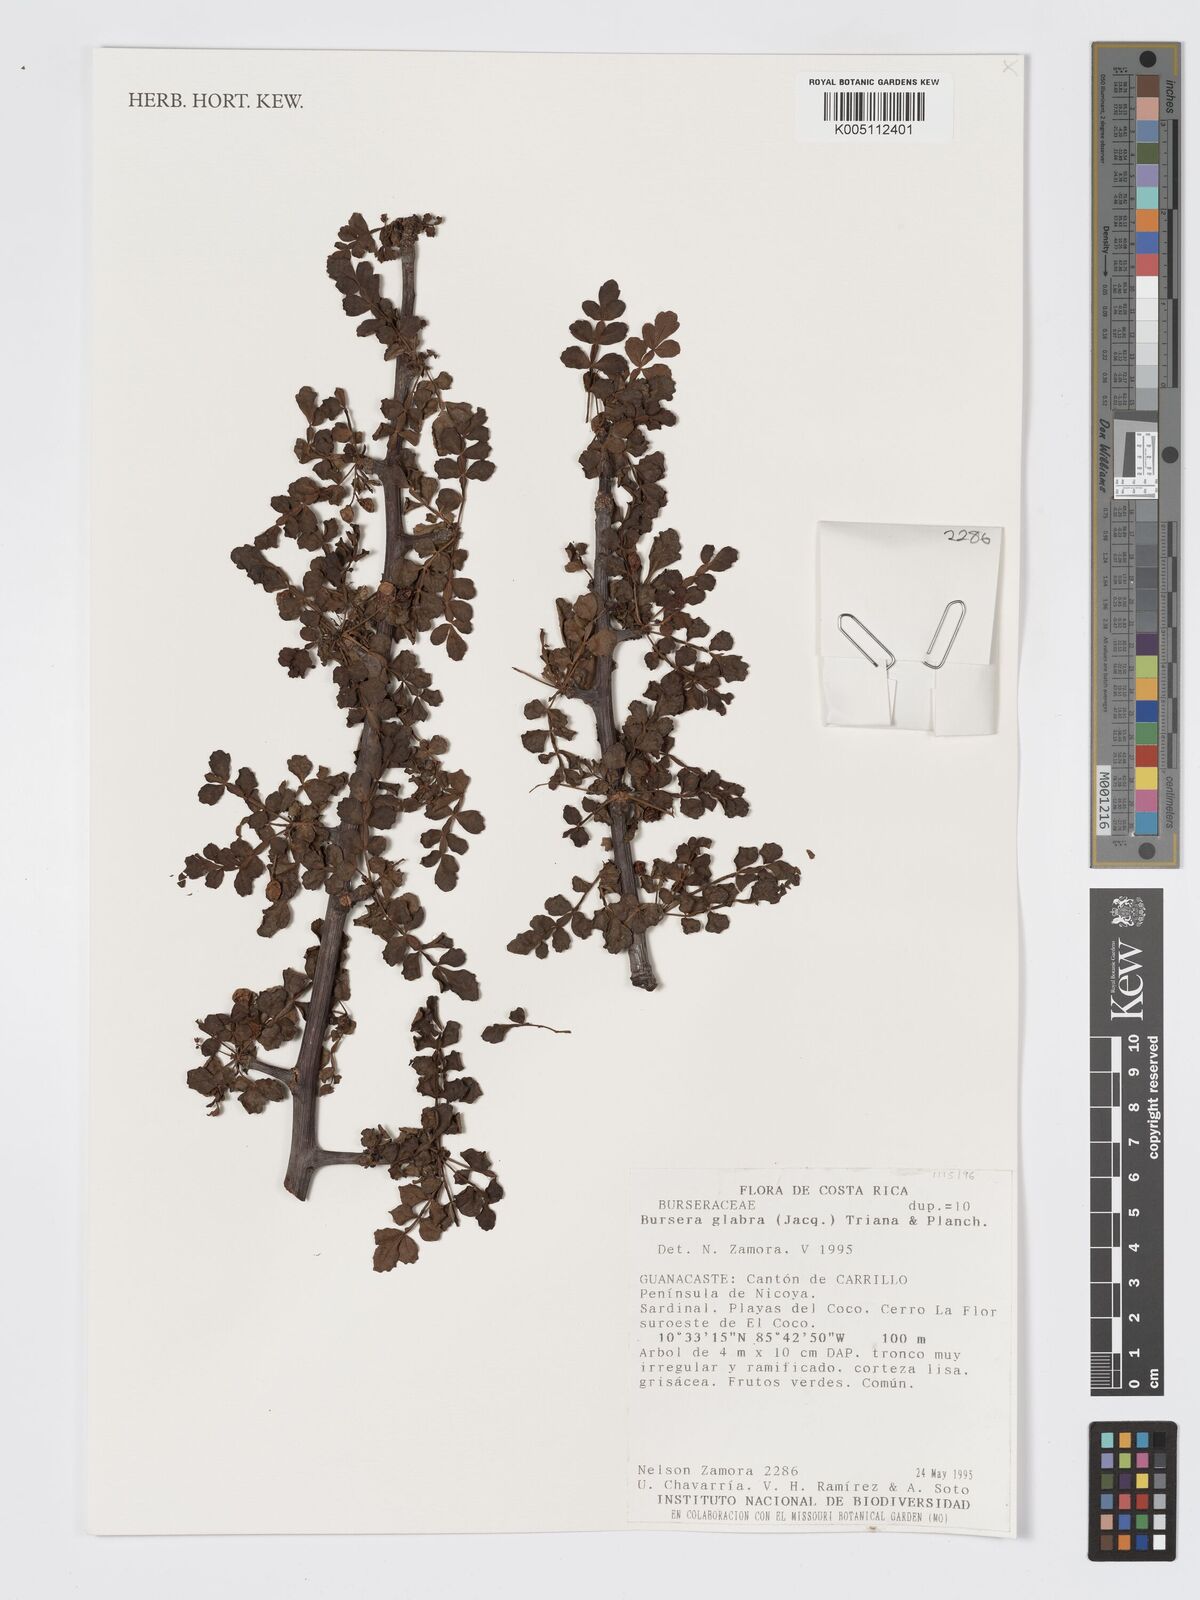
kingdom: Plantae
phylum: Tracheophyta
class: Magnoliopsida
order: Sapindales
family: Burseraceae
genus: Bursera
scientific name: Bursera glabra
